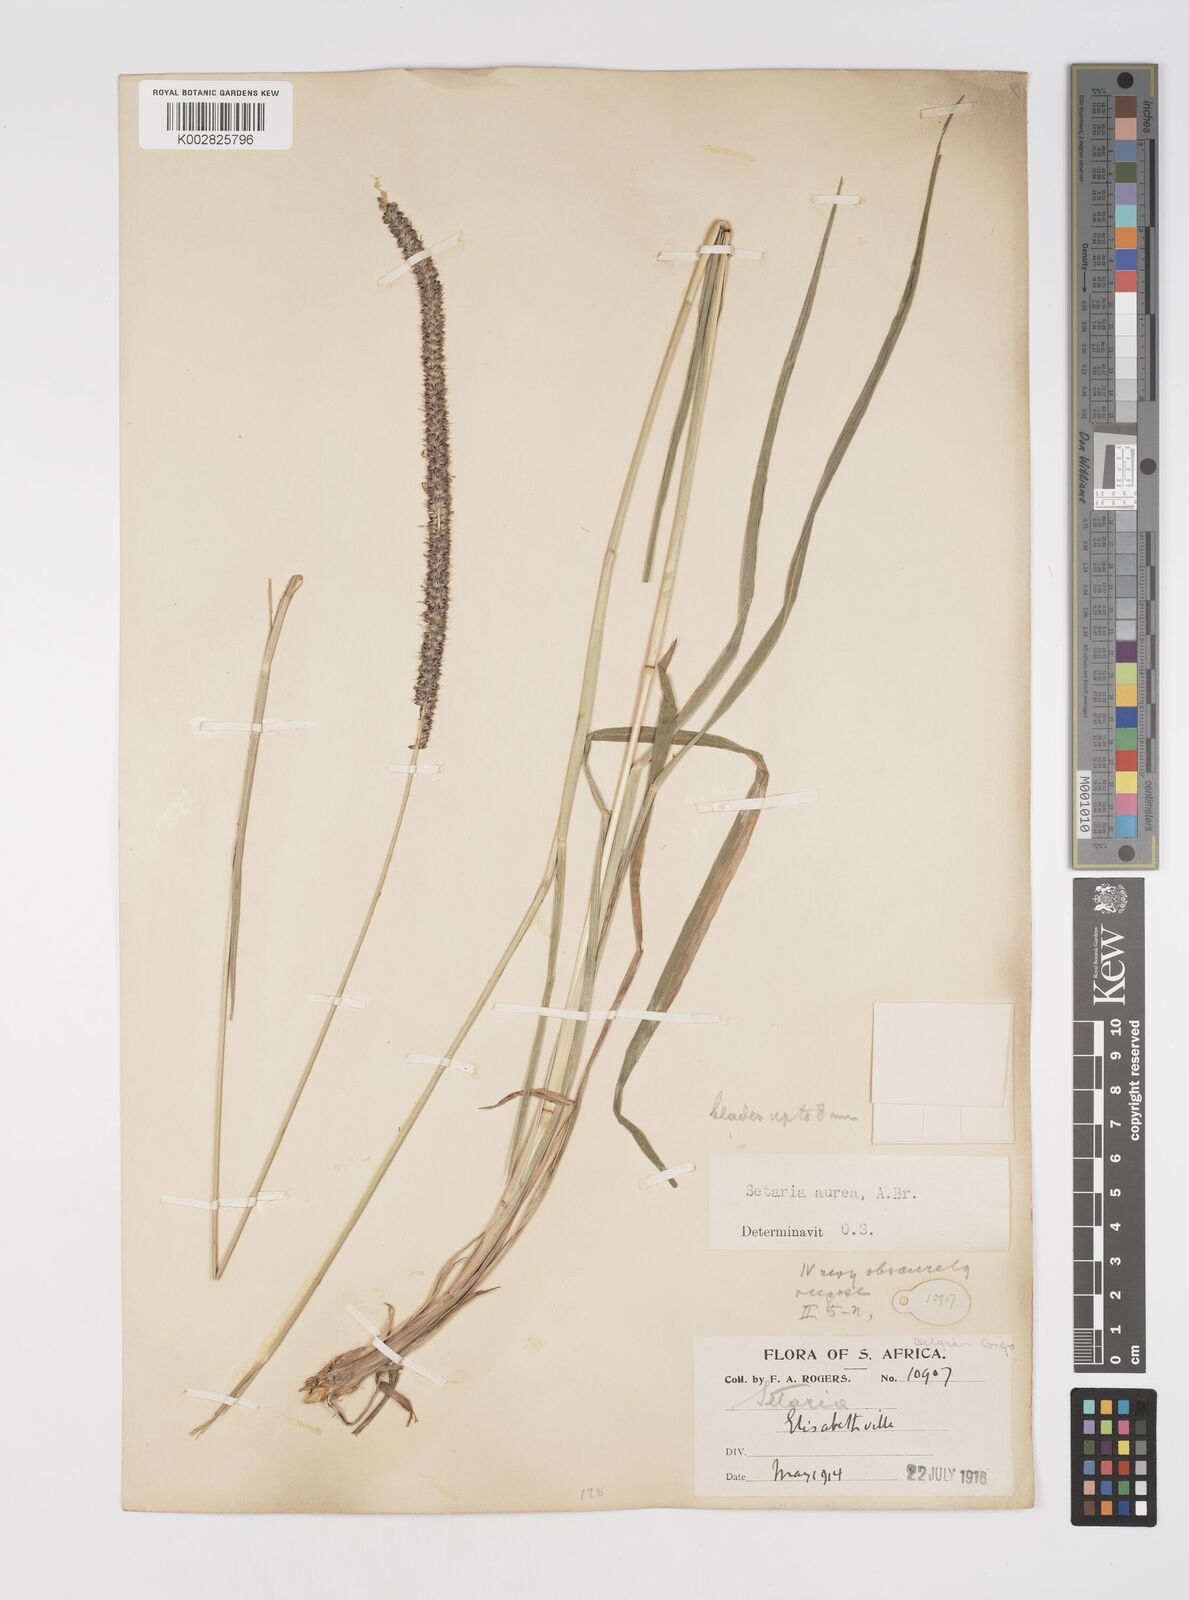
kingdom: Plantae
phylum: Tracheophyta
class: Liliopsida
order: Poales
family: Poaceae
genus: Setaria
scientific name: Setaria sphacelata
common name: African bristlegrass
